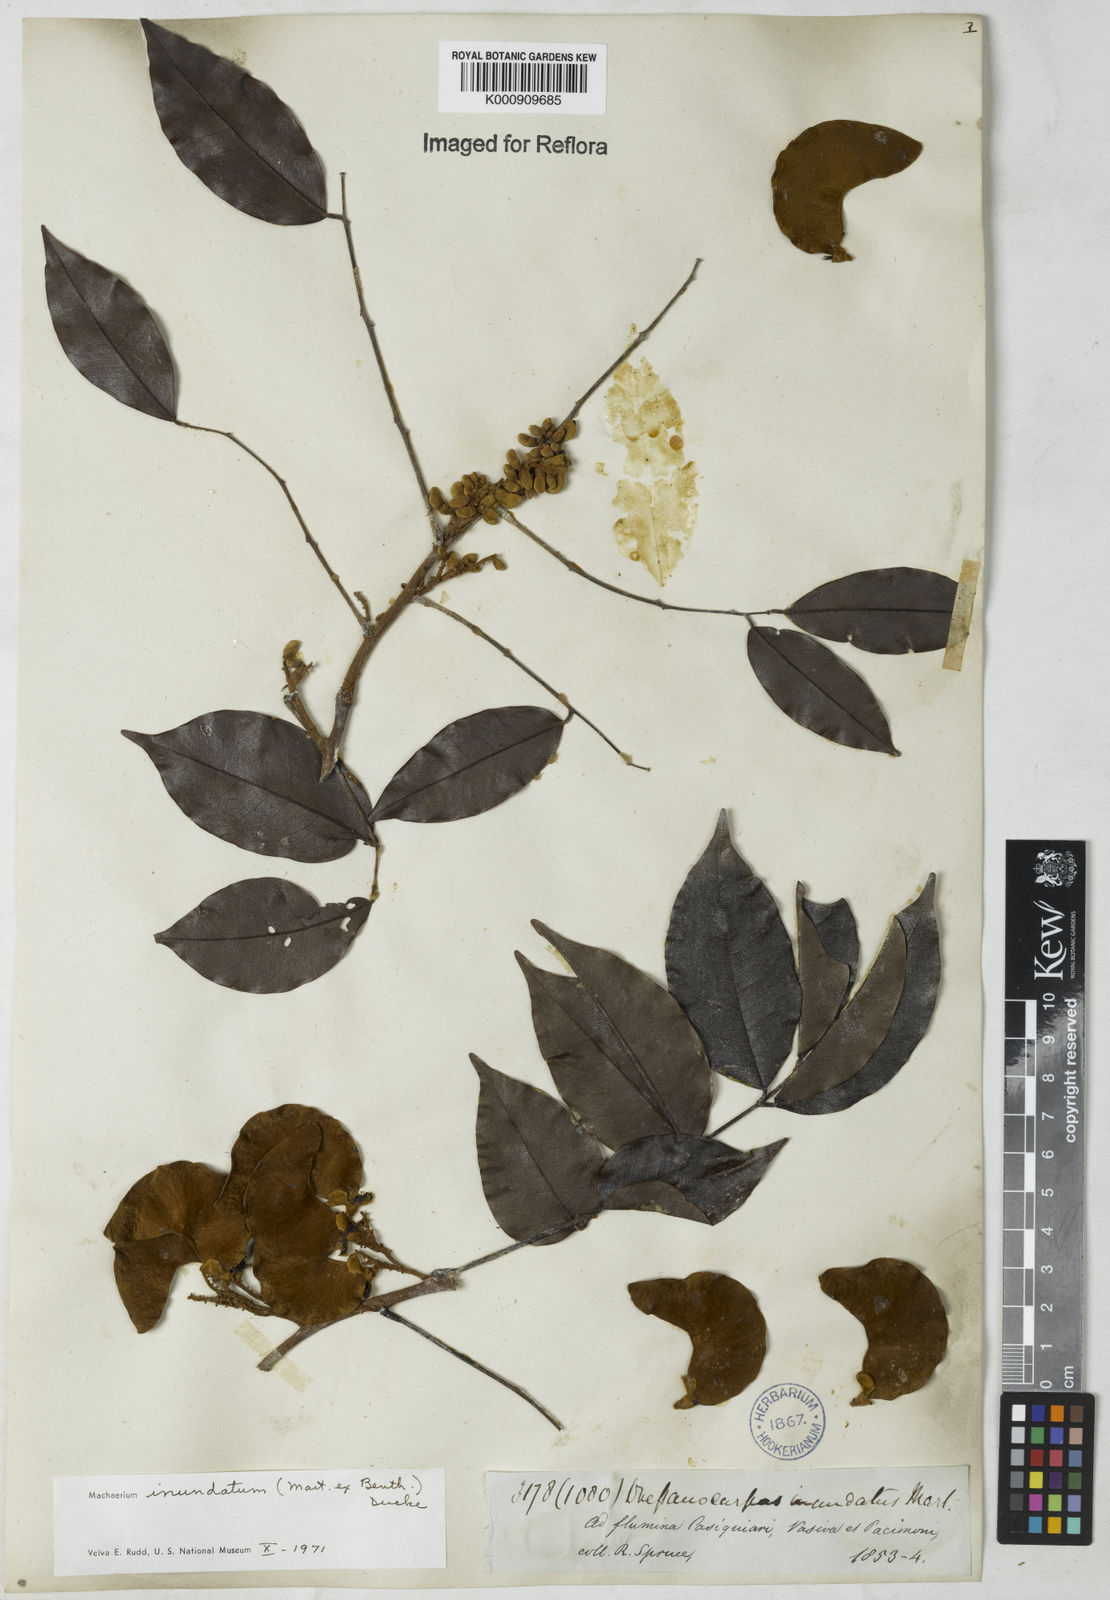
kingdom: Plantae
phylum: Tracheophyta
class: Magnoliopsida
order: Fabales
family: Fabaceae
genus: Machaerium
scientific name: Machaerium inundatum
